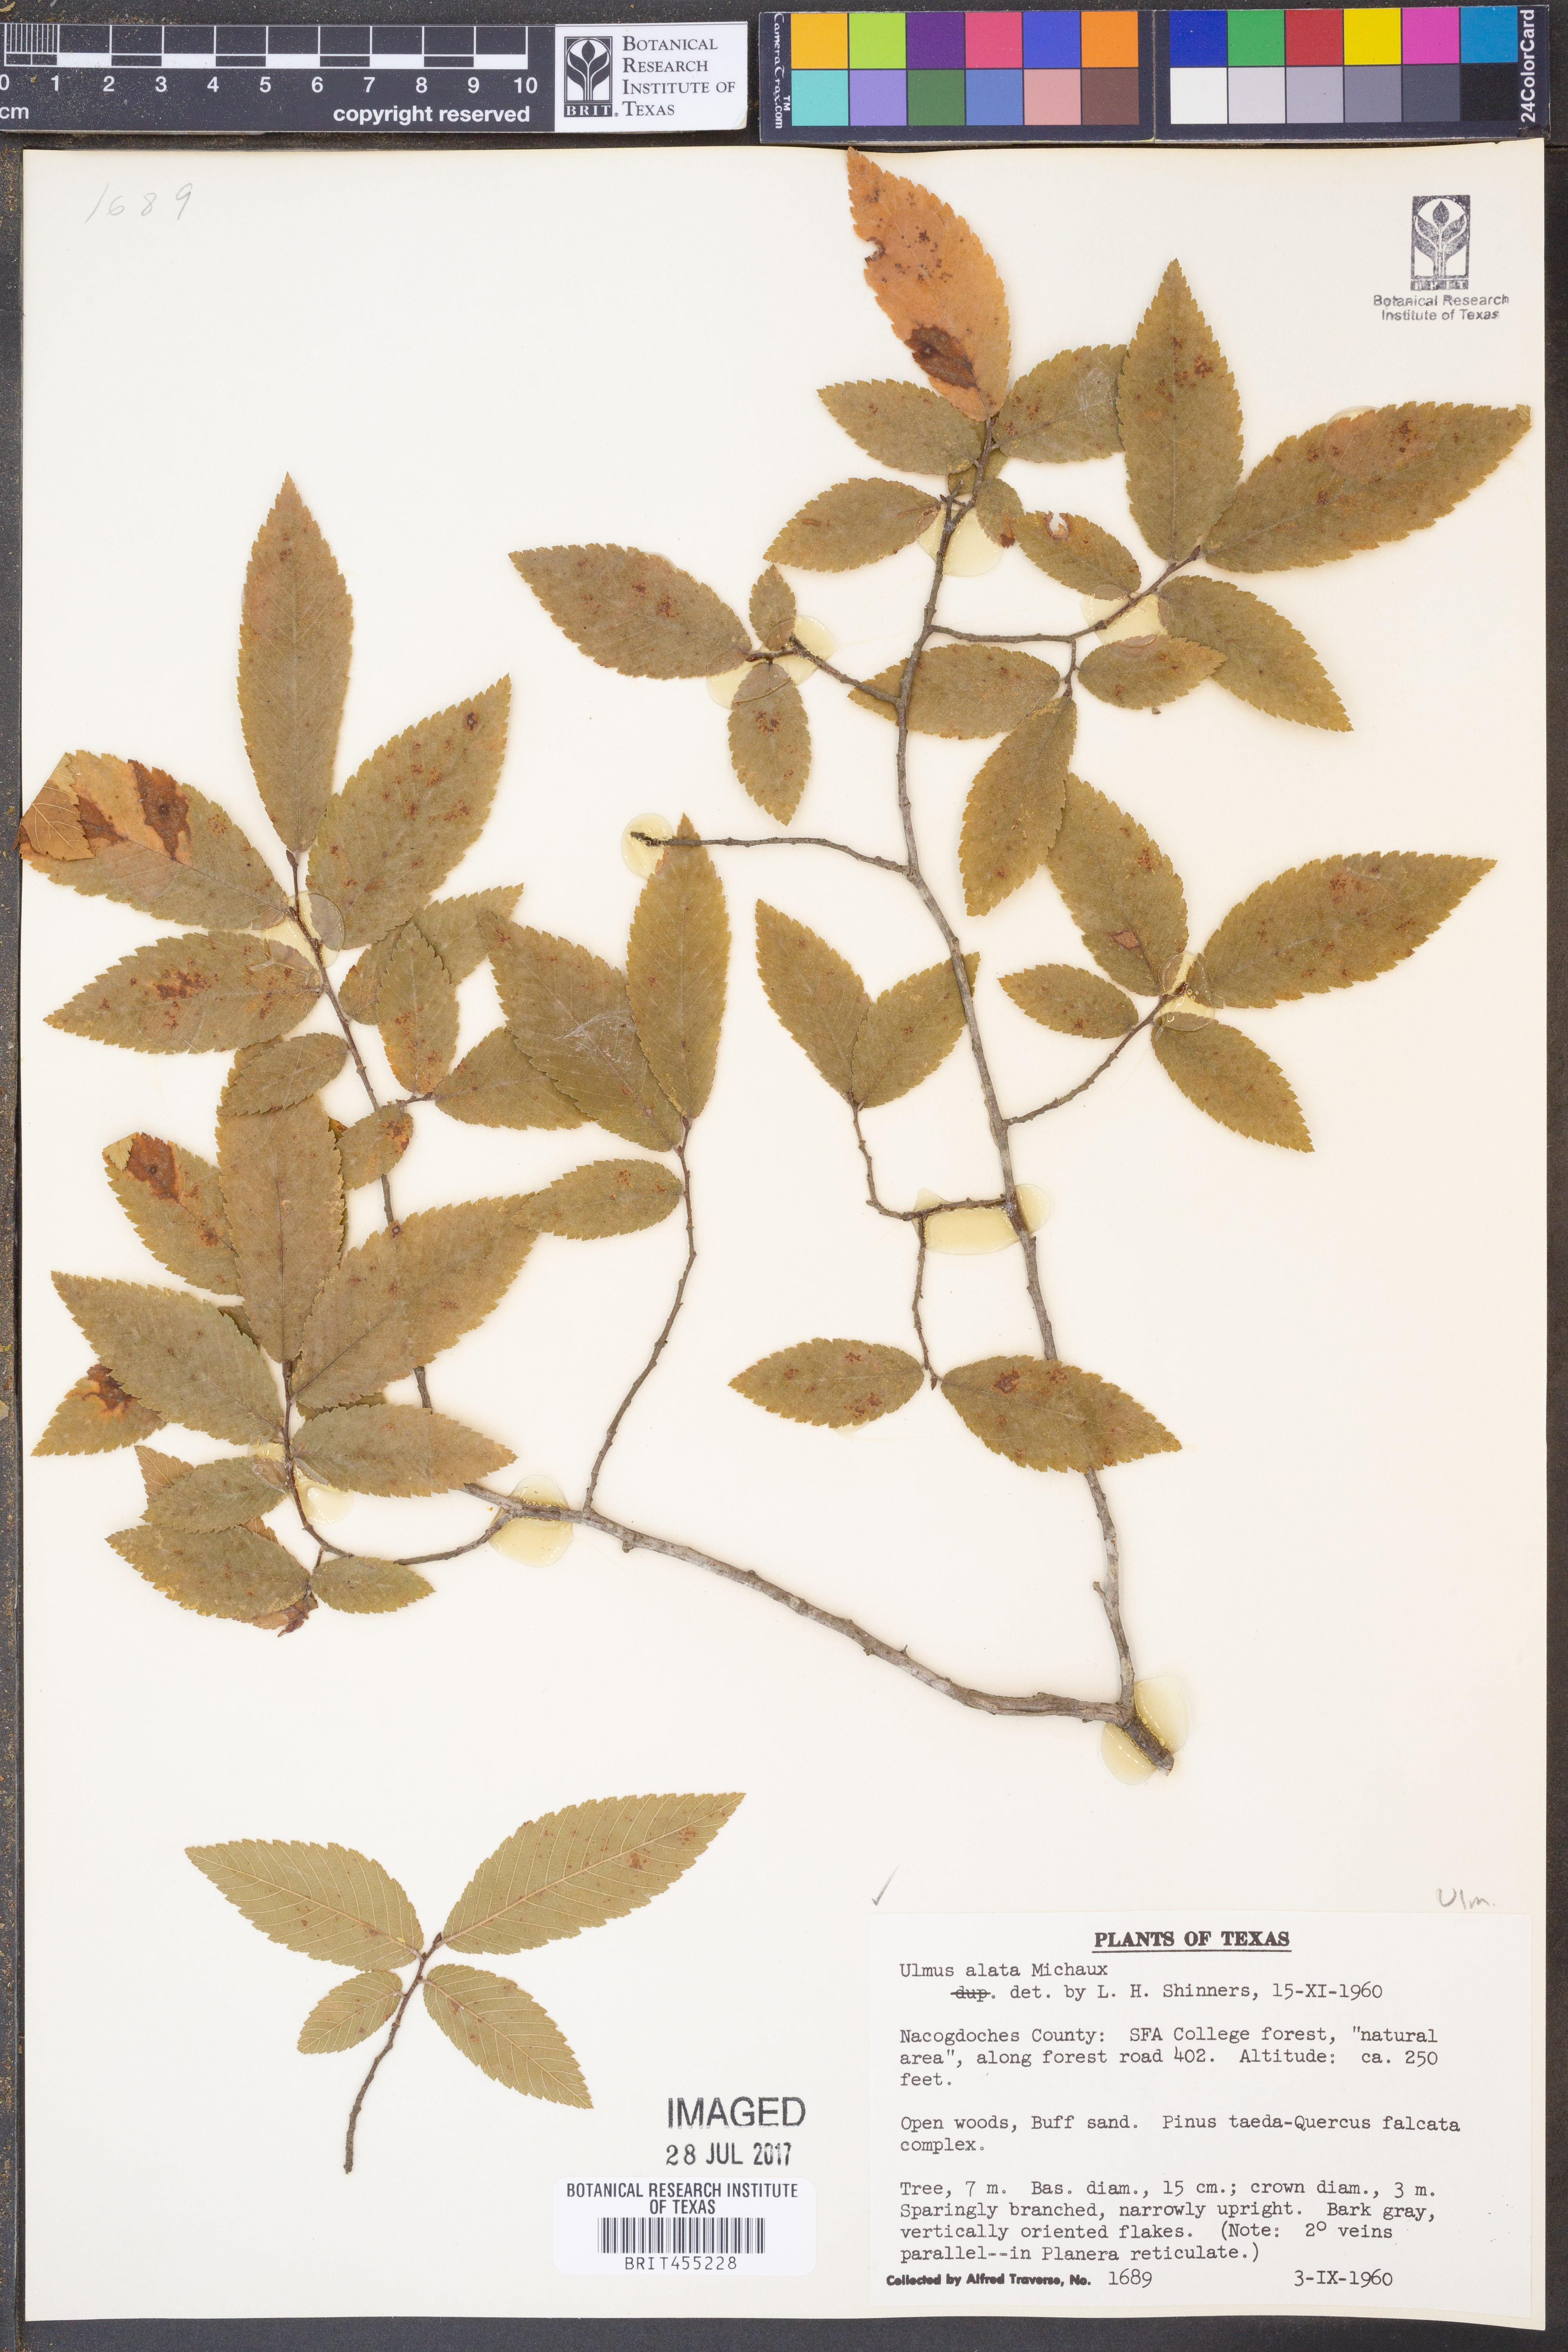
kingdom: Plantae
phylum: Tracheophyta
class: Magnoliopsida
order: Rosales
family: Ulmaceae
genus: Ulmus
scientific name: Ulmus alata
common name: Winged elm
